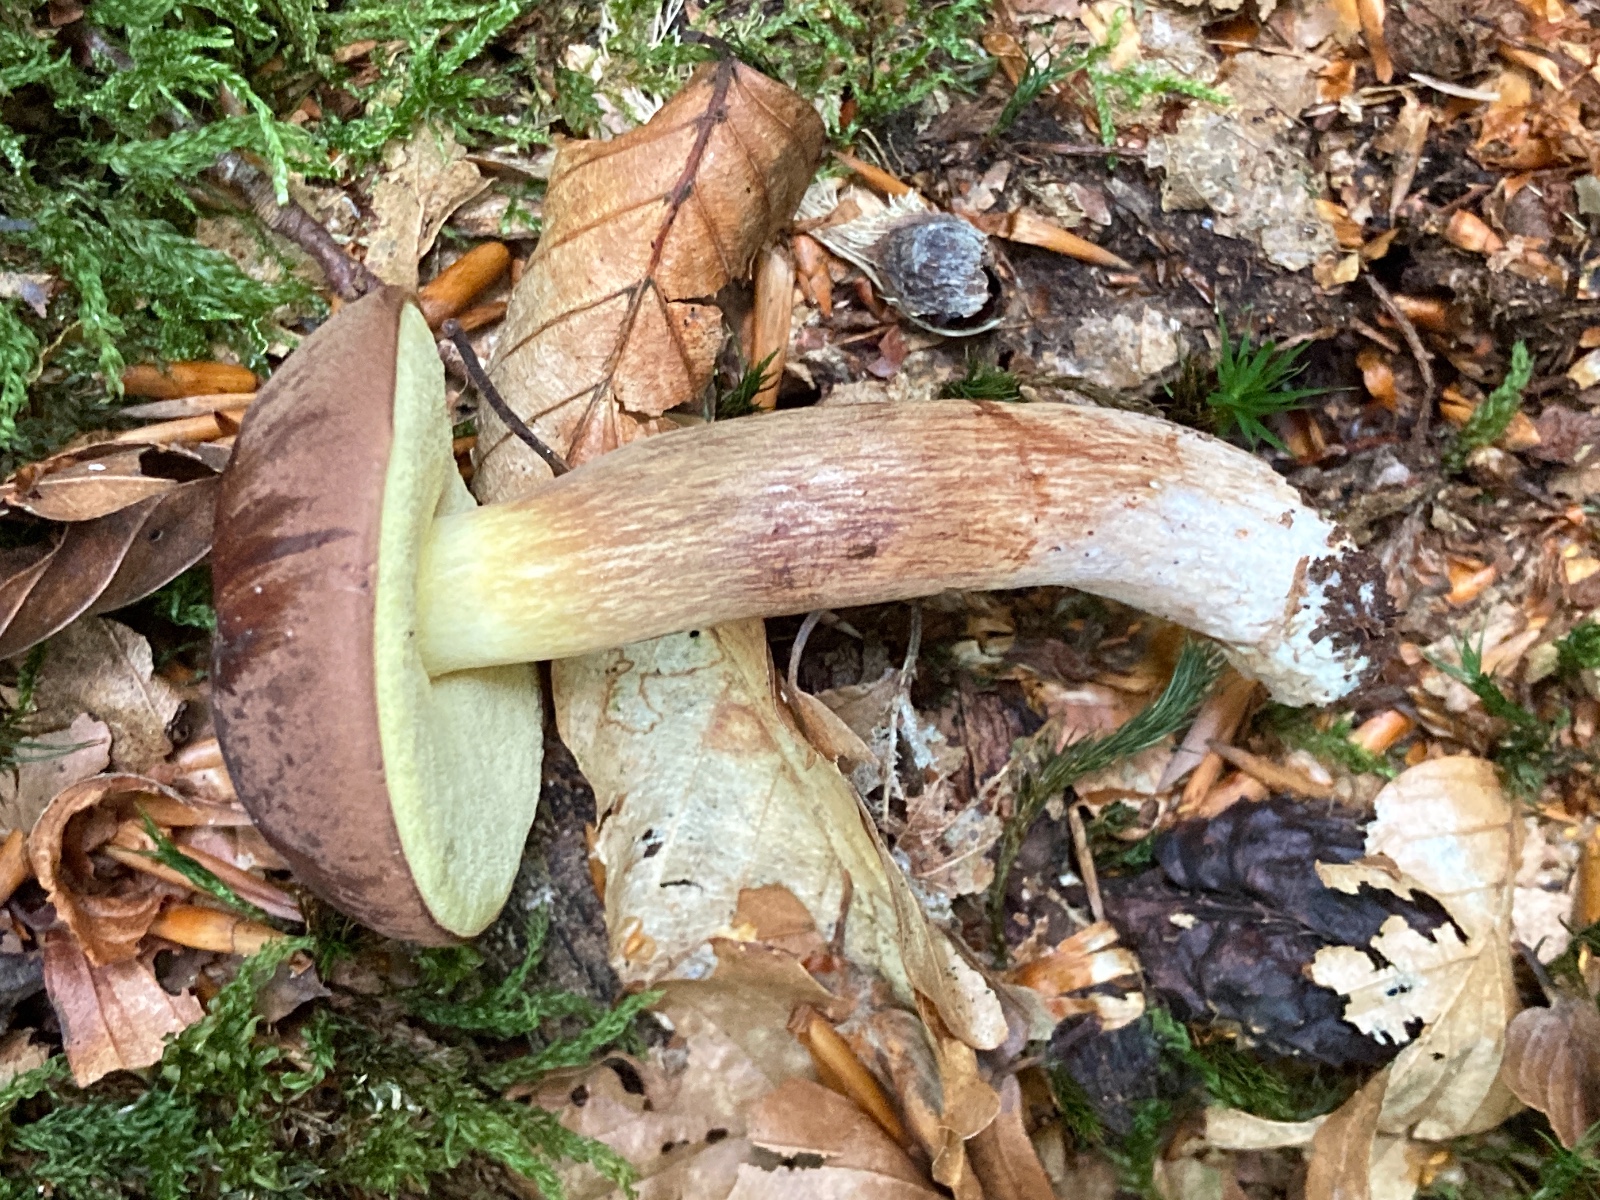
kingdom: Fungi
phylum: Basidiomycota
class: Agaricomycetes
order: Boletales
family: Boletaceae
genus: Imleria
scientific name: Imleria badia
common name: brunstokket rørhat
